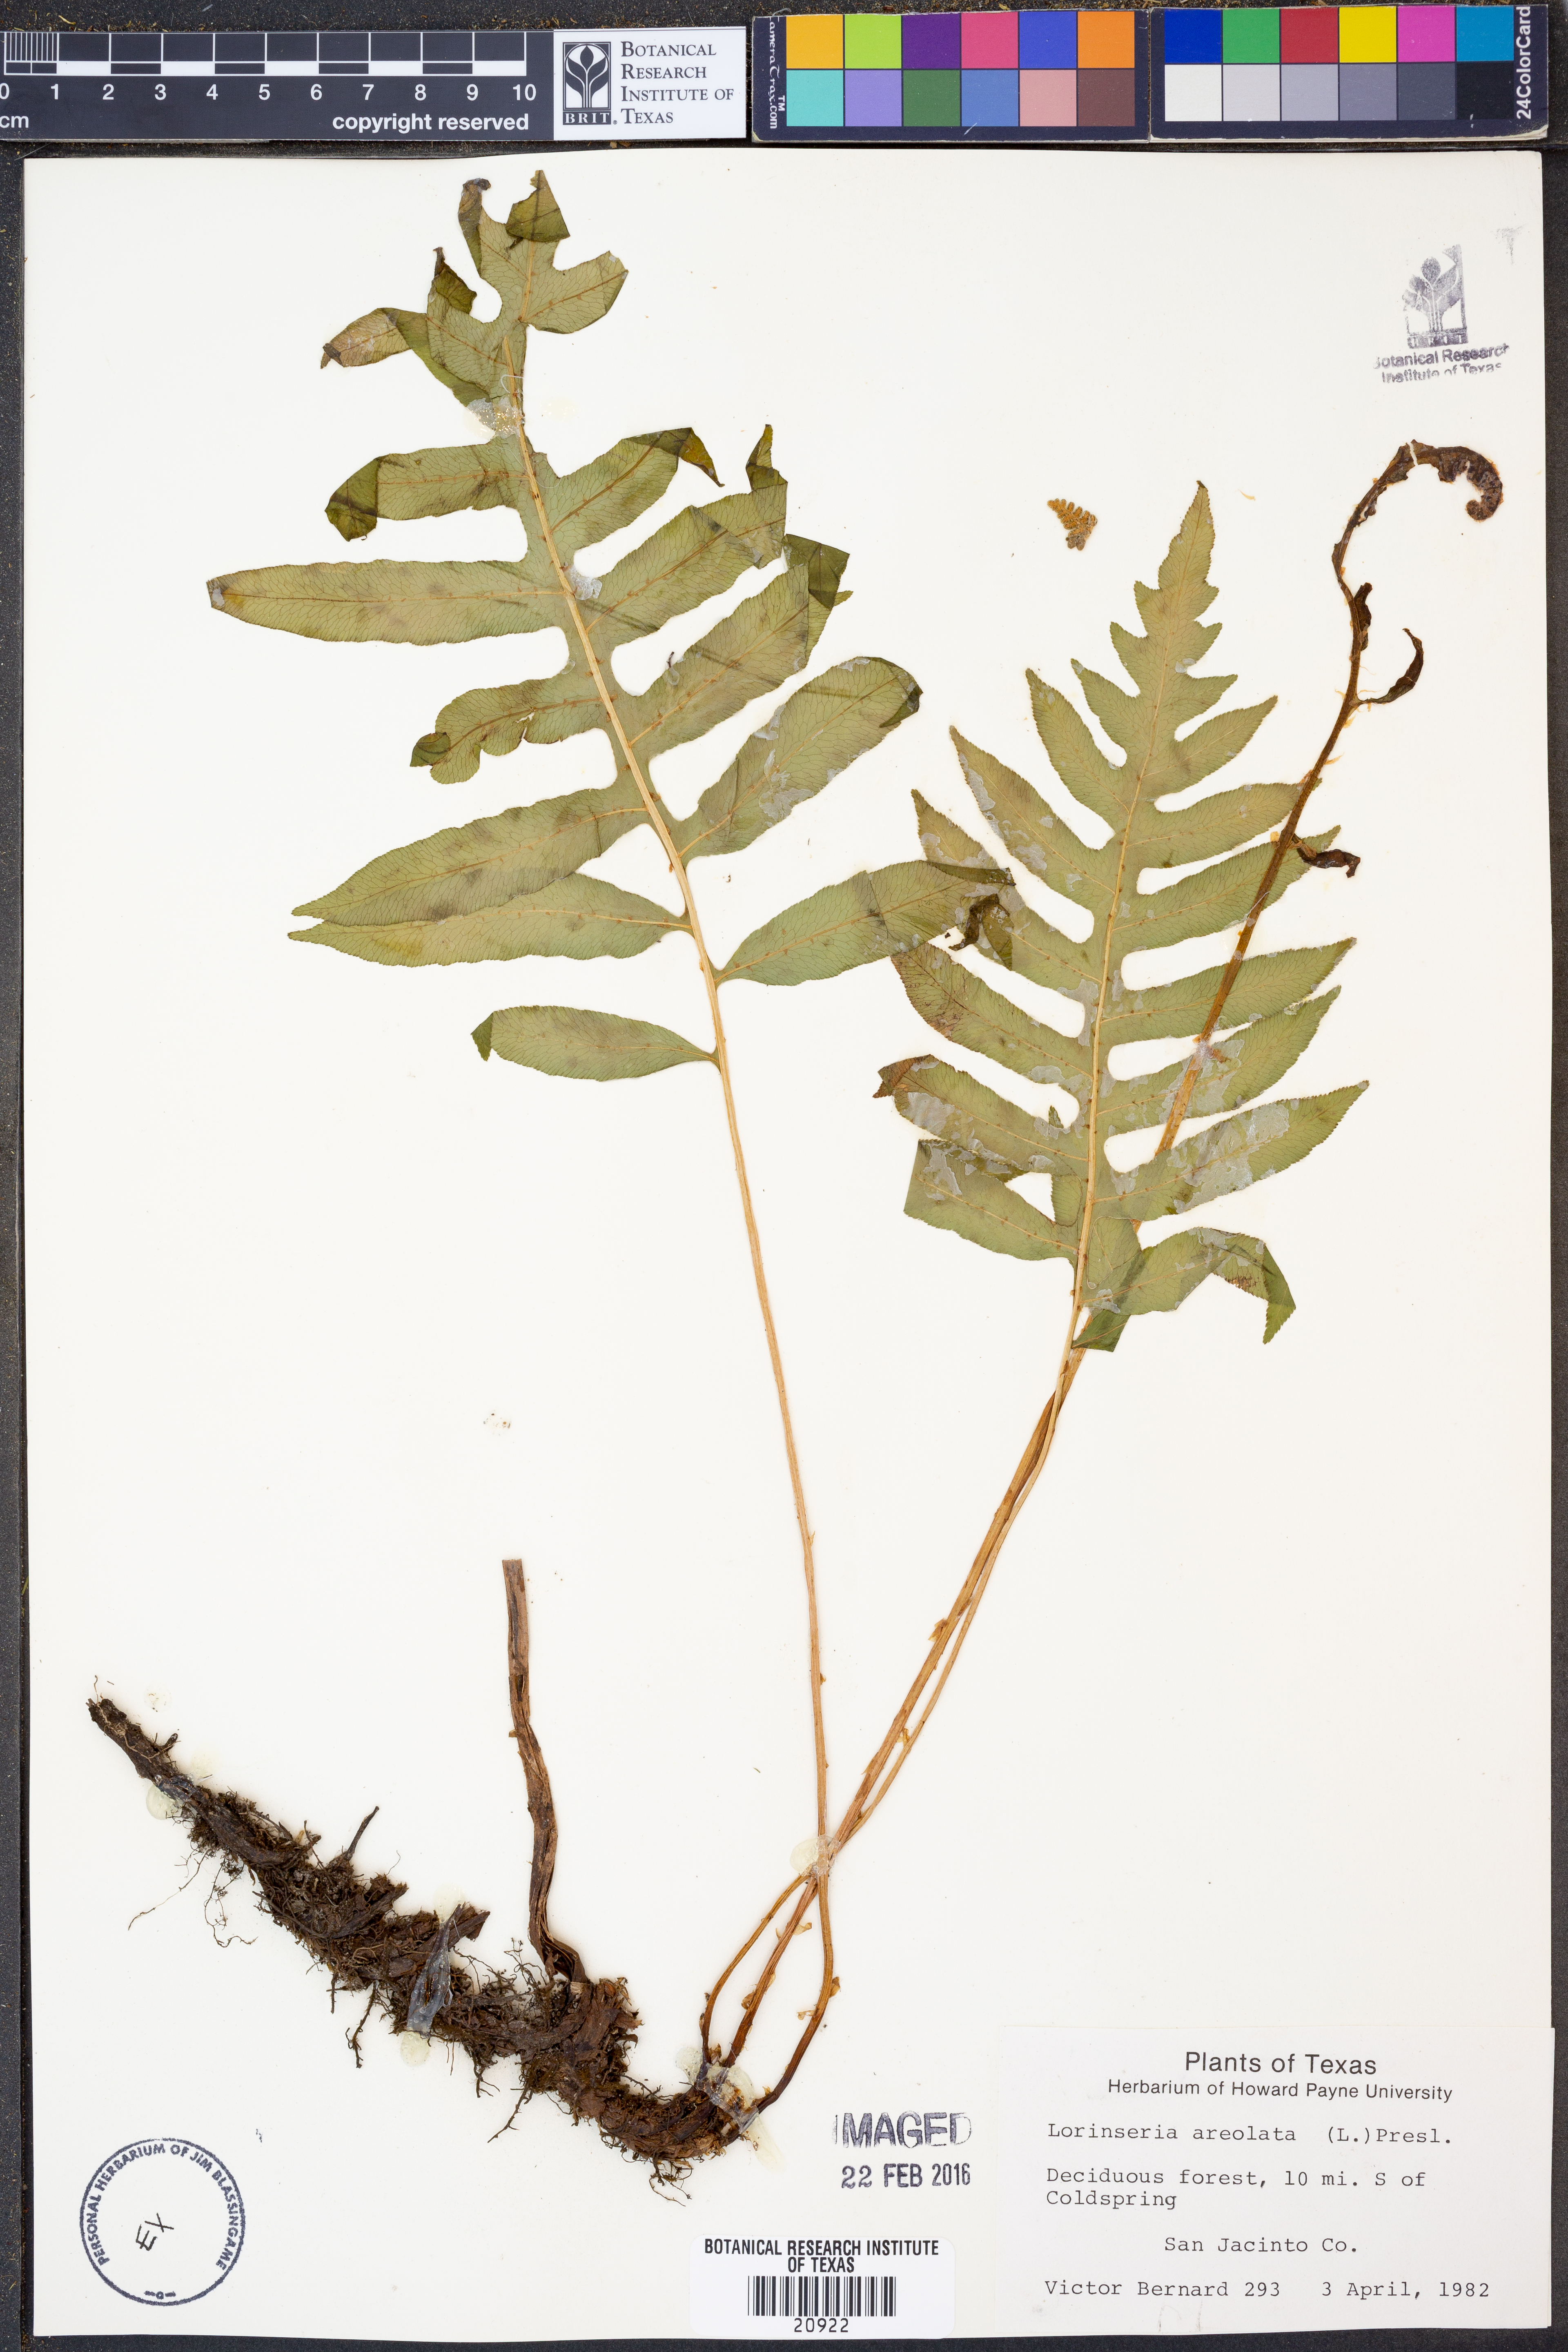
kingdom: Plantae
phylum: Tracheophyta
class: Polypodiopsida
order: Polypodiales
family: Blechnaceae
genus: Lorinseria
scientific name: Lorinseria areolata
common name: Dwarf chain fern
